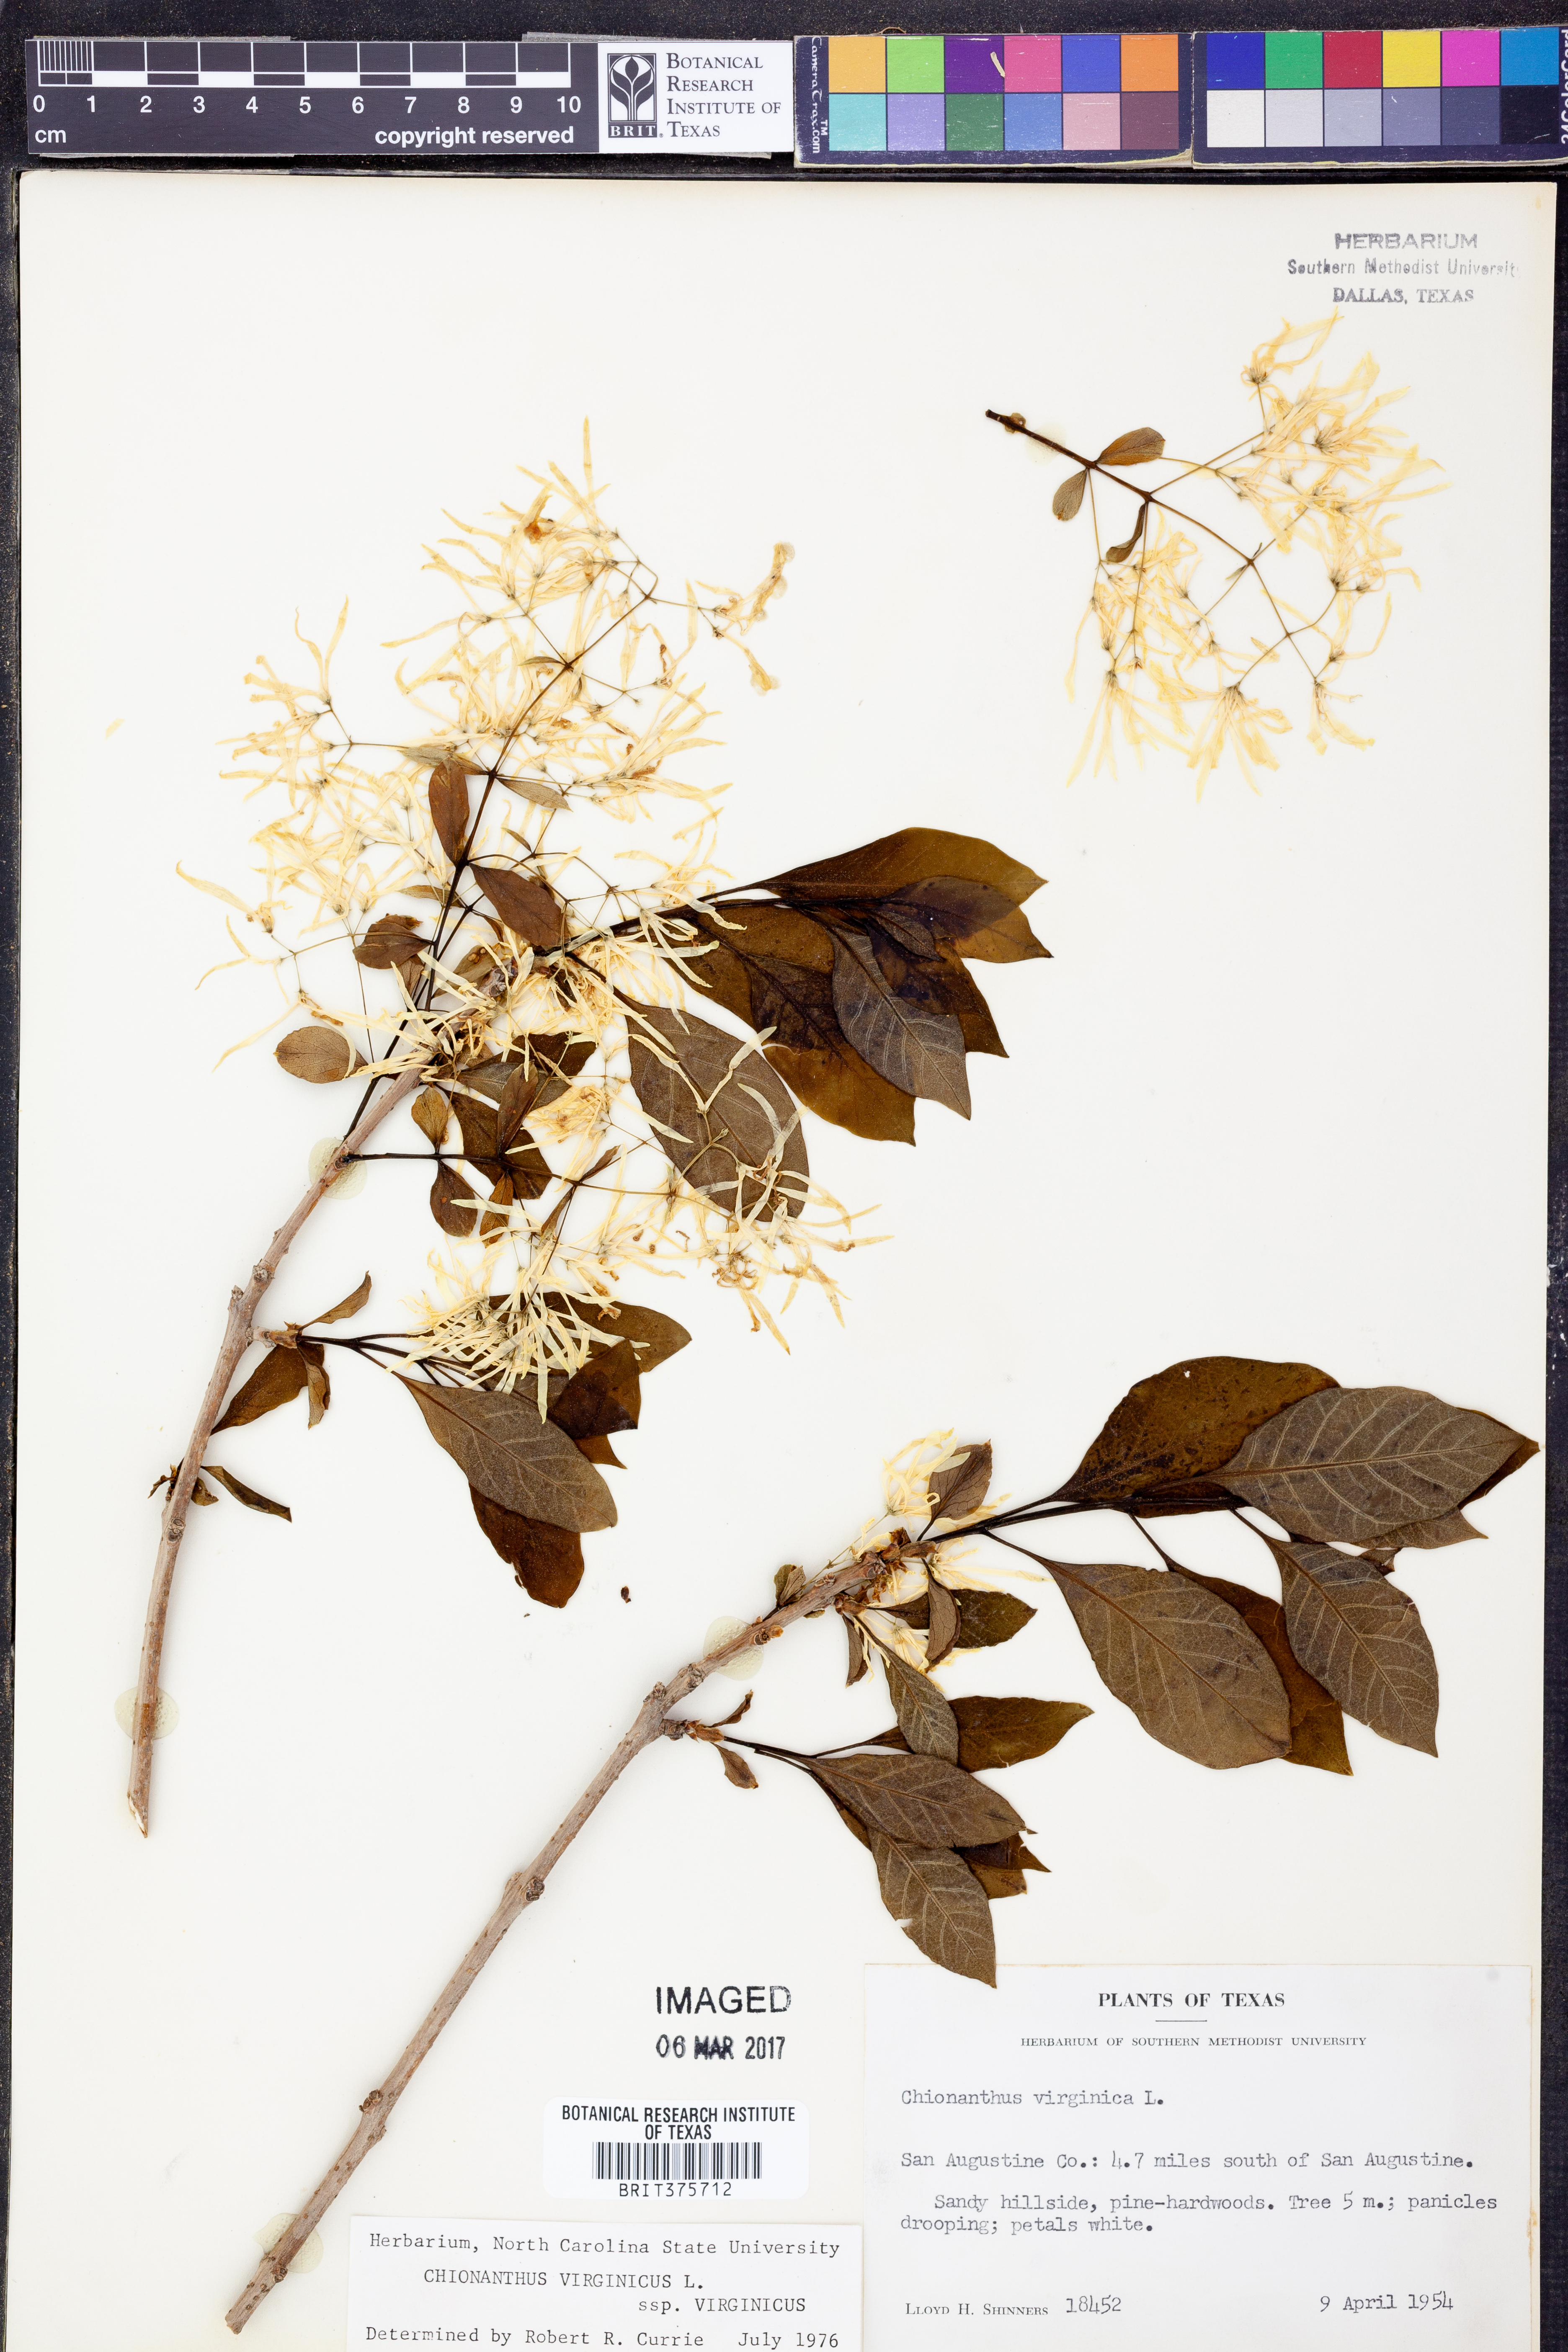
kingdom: Plantae
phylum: Tracheophyta
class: Magnoliopsida
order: Lamiales
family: Oleaceae
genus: Chionanthus
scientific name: Chionanthus virginicus
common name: American fringetree
